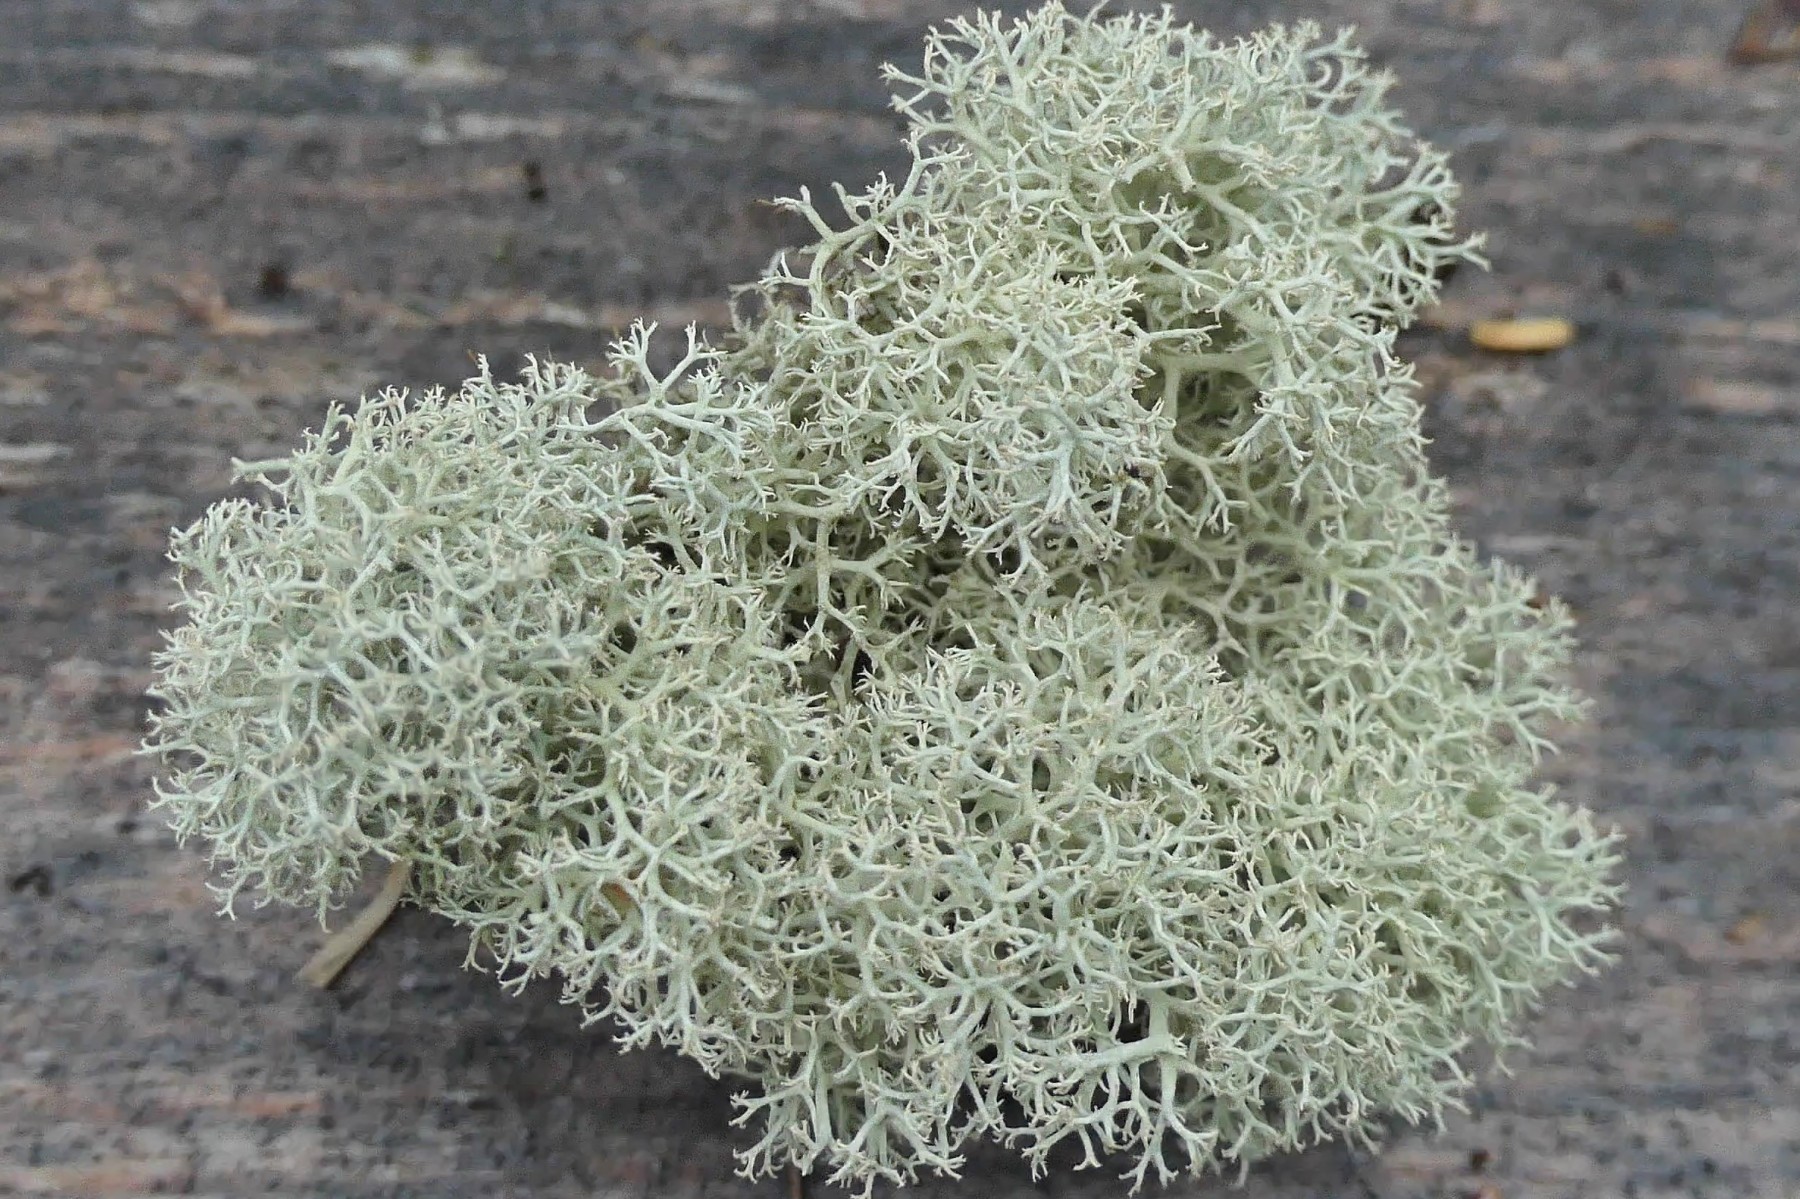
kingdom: Fungi
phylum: Ascomycota
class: Lecanoromycetes
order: Lecanorales
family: Cladoniaceae
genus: Cladonia
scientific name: Cladonia portentosa
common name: hede-rensdyrlav
